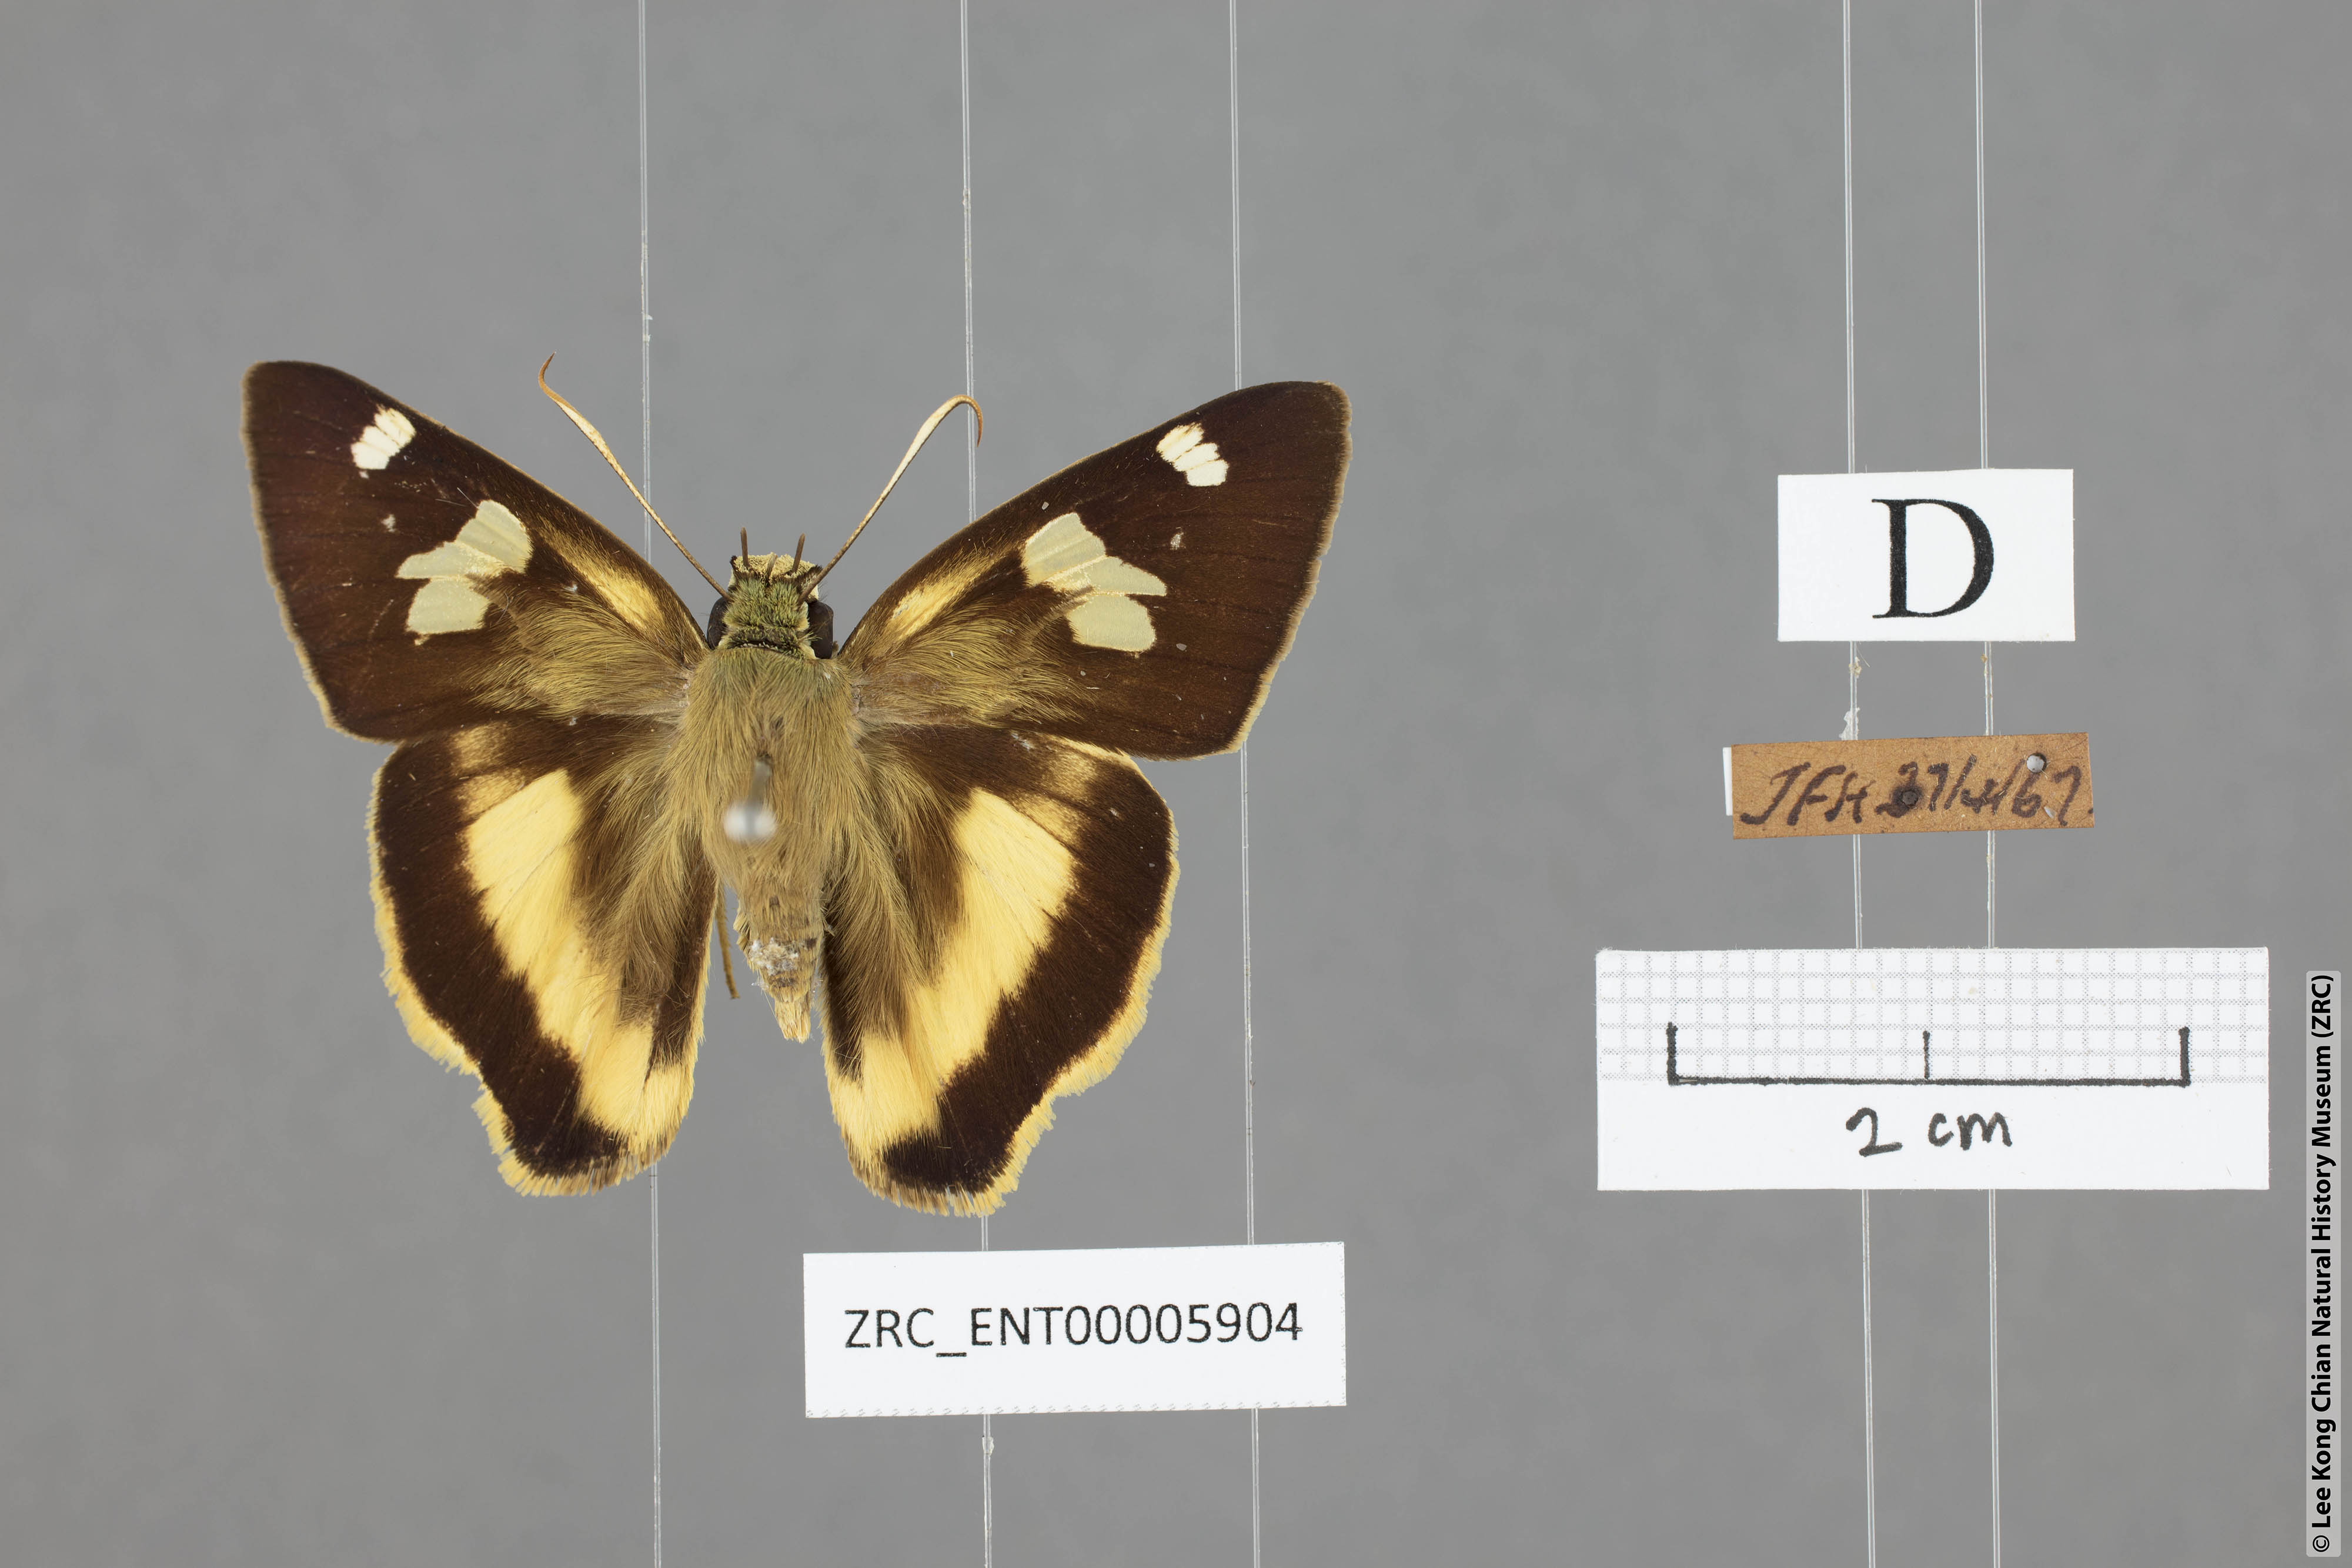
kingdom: Animalia
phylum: Arthropoda
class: Insecta
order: Lepidoptera
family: Hesperiidae
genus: Hasora
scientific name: Hasora schoenherr
